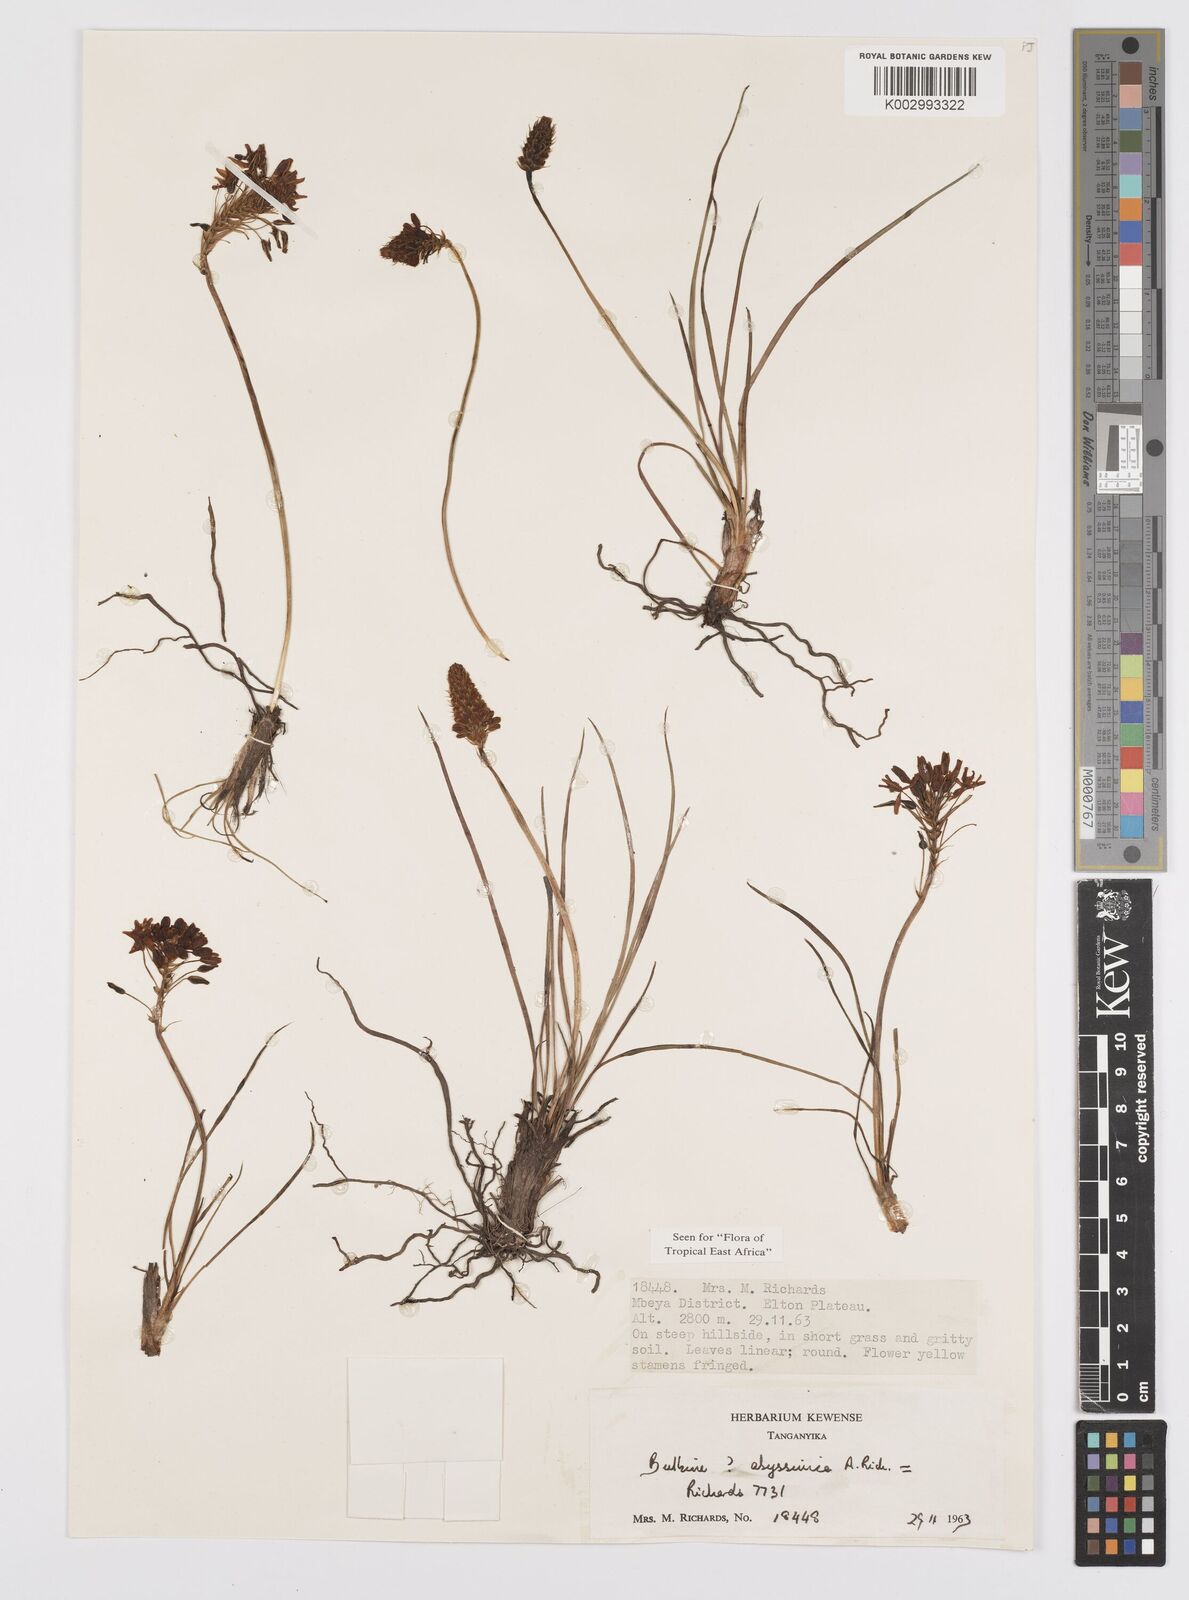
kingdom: Plantae
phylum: Tracheophyta
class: Liliopsida
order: Asparagales
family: Asphodelaceae
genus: Bulbine
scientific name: Bulbine abyssinica
